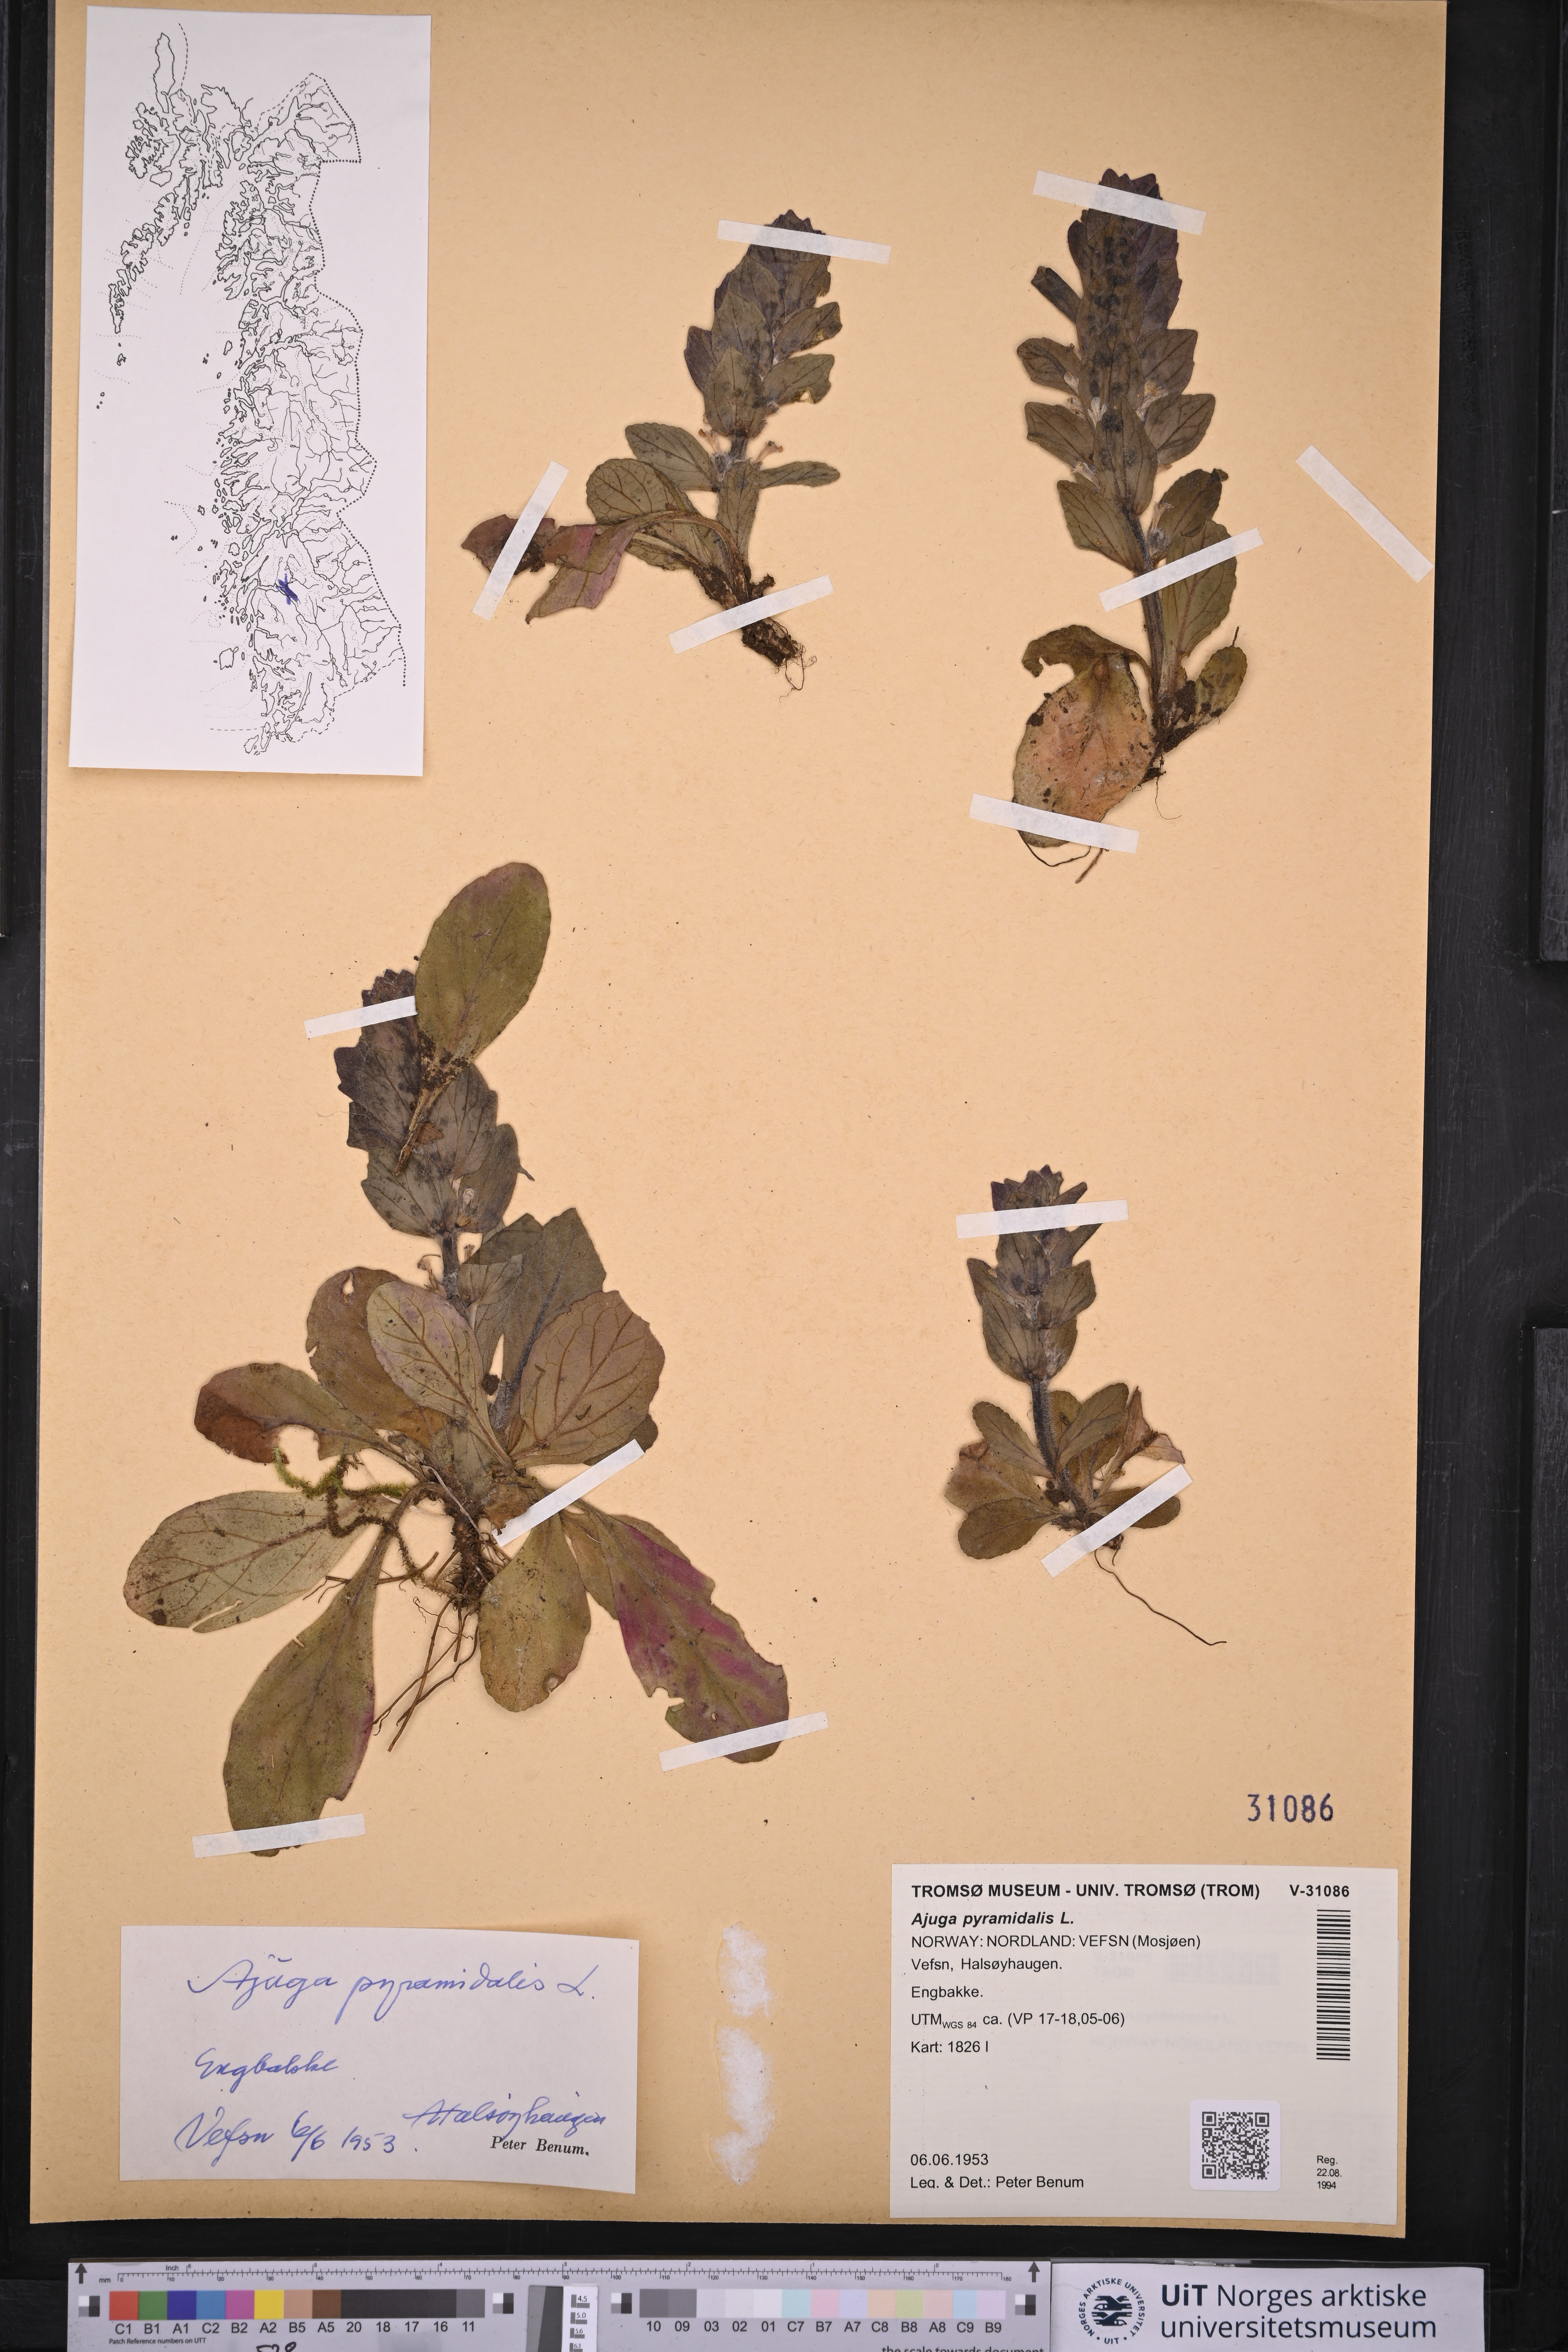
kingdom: Plantae
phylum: Tracheophyta
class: Magnoliopsida
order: Lamiales
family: Lamiaceae
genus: Ajuga
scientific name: Ajuga pyramidalis
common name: Pyramid bugle
